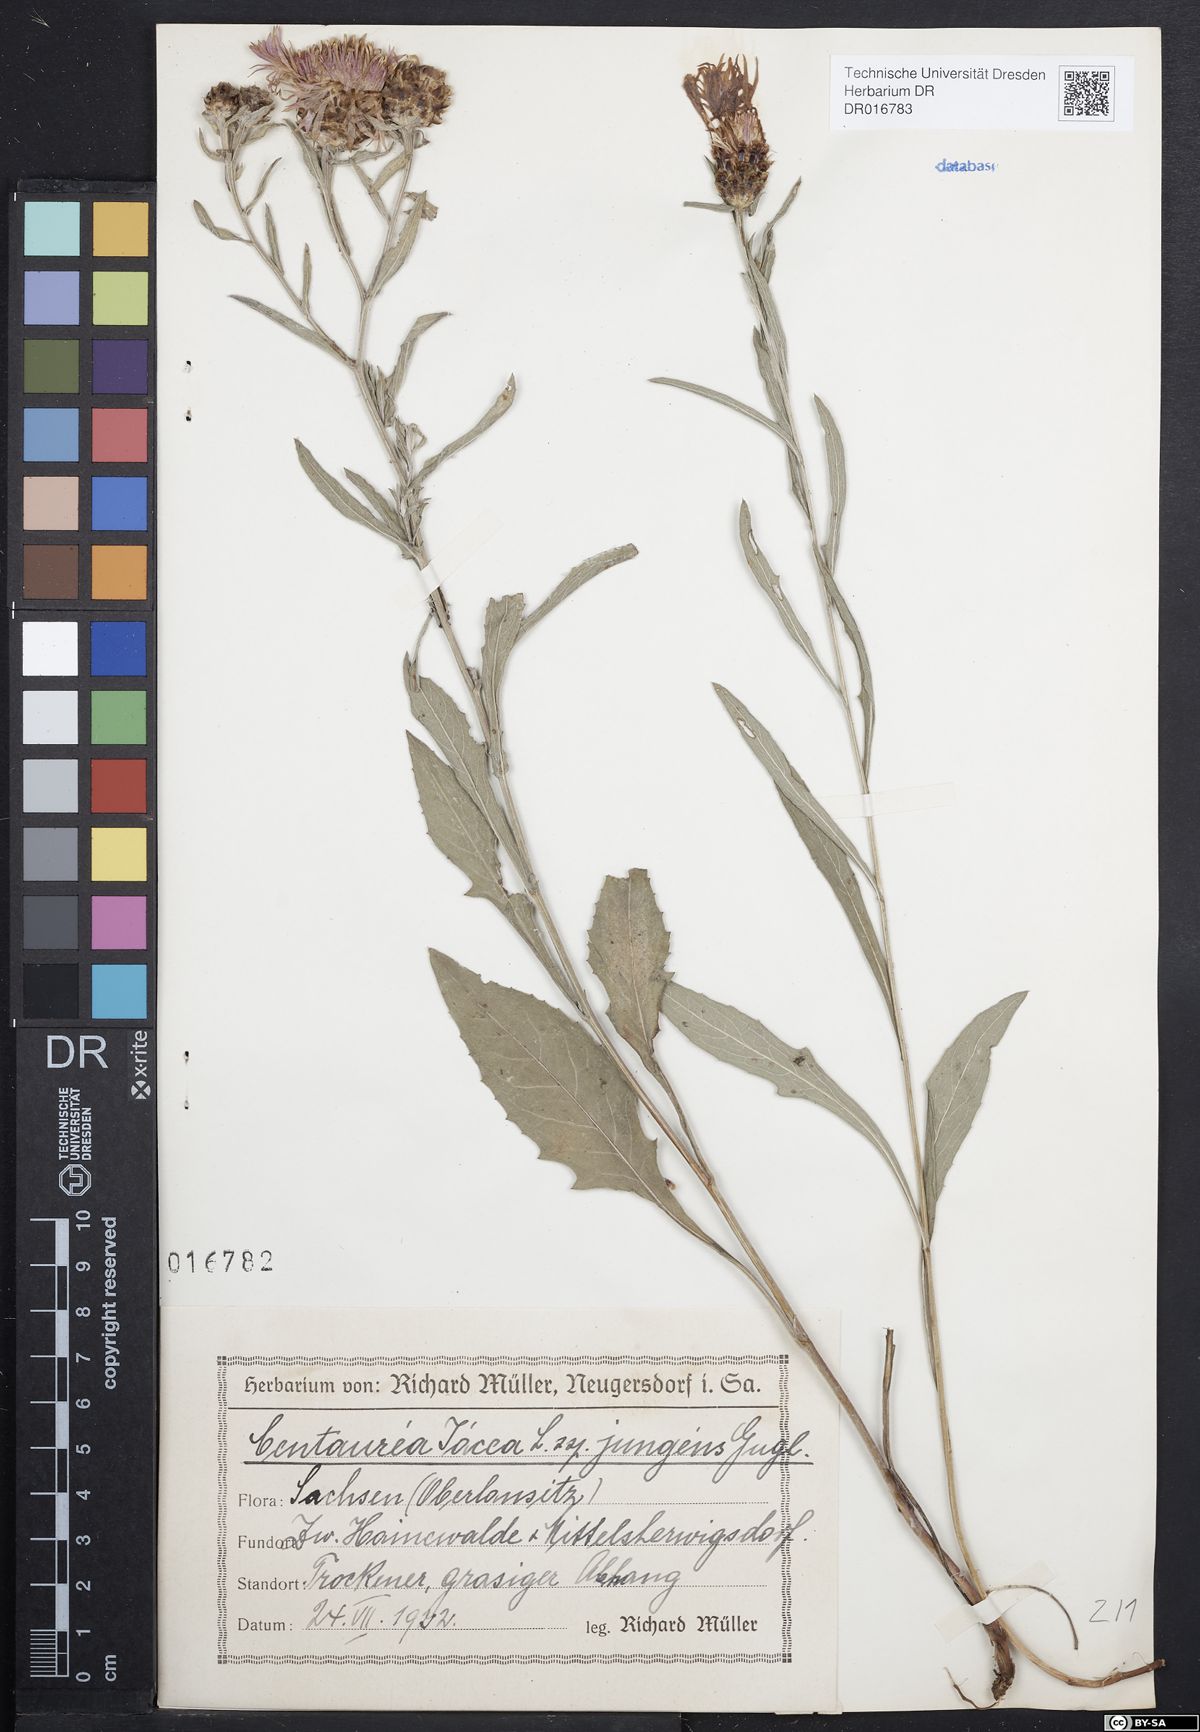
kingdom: Plantae
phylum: Tracheophyta
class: Magnoliopsida
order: Asterales
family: Asteraceae
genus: Centaurea
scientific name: Centaurea jacea
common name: Brown knapweed
